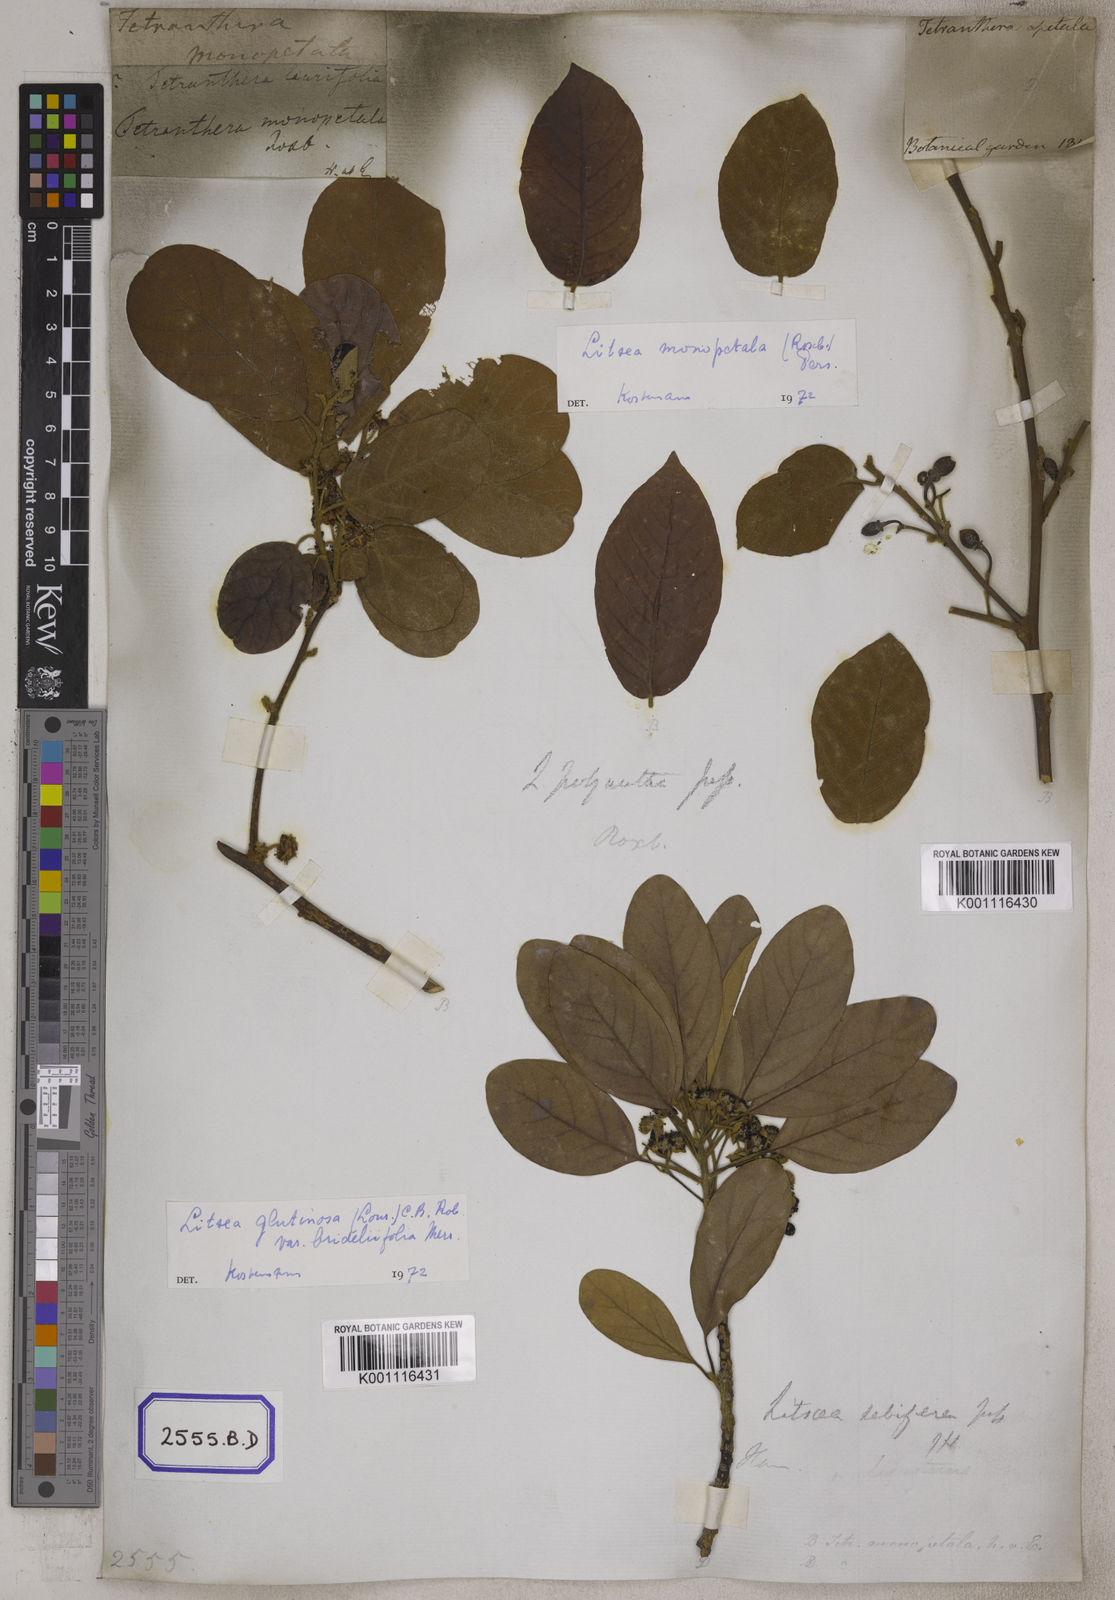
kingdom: Plantae
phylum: Tracheophyta
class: Magnoliopsida
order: Laurales
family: Lauraceae
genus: Litsea
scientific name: Litsea glutinosa
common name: Indian-laurel
